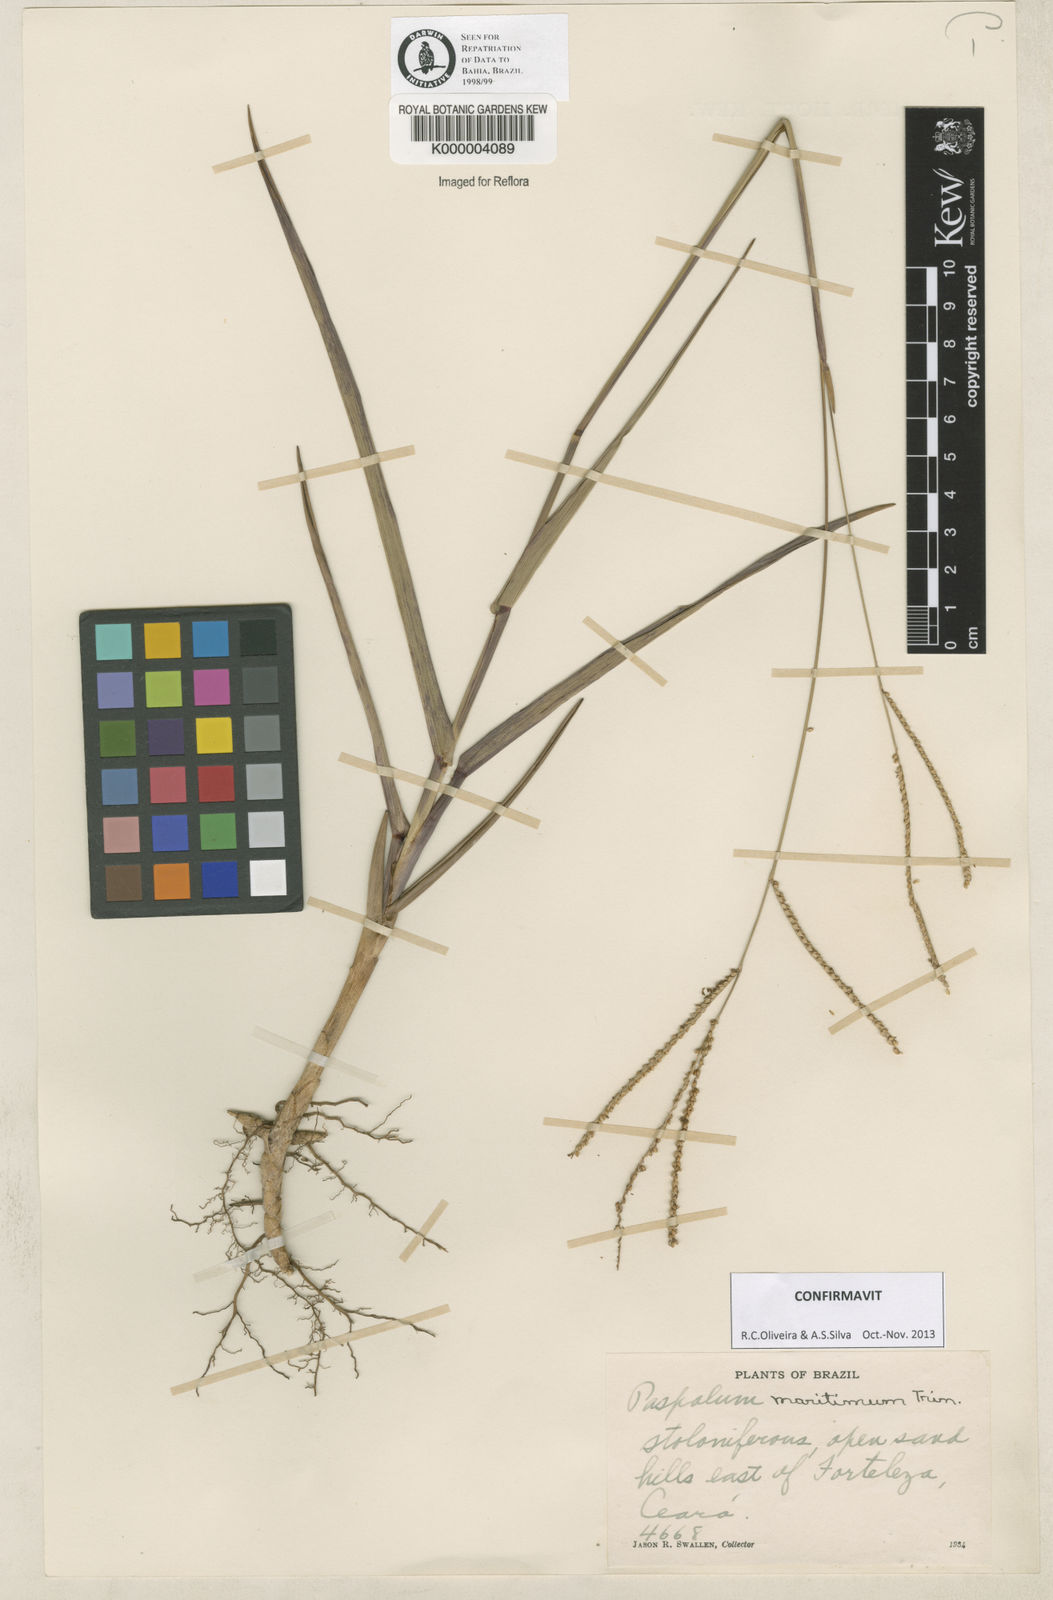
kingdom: Plantae
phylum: Tracheophyta
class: Liliopsida
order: Poales
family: Poaceae
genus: Paspalum
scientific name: Paspalum maritimum
